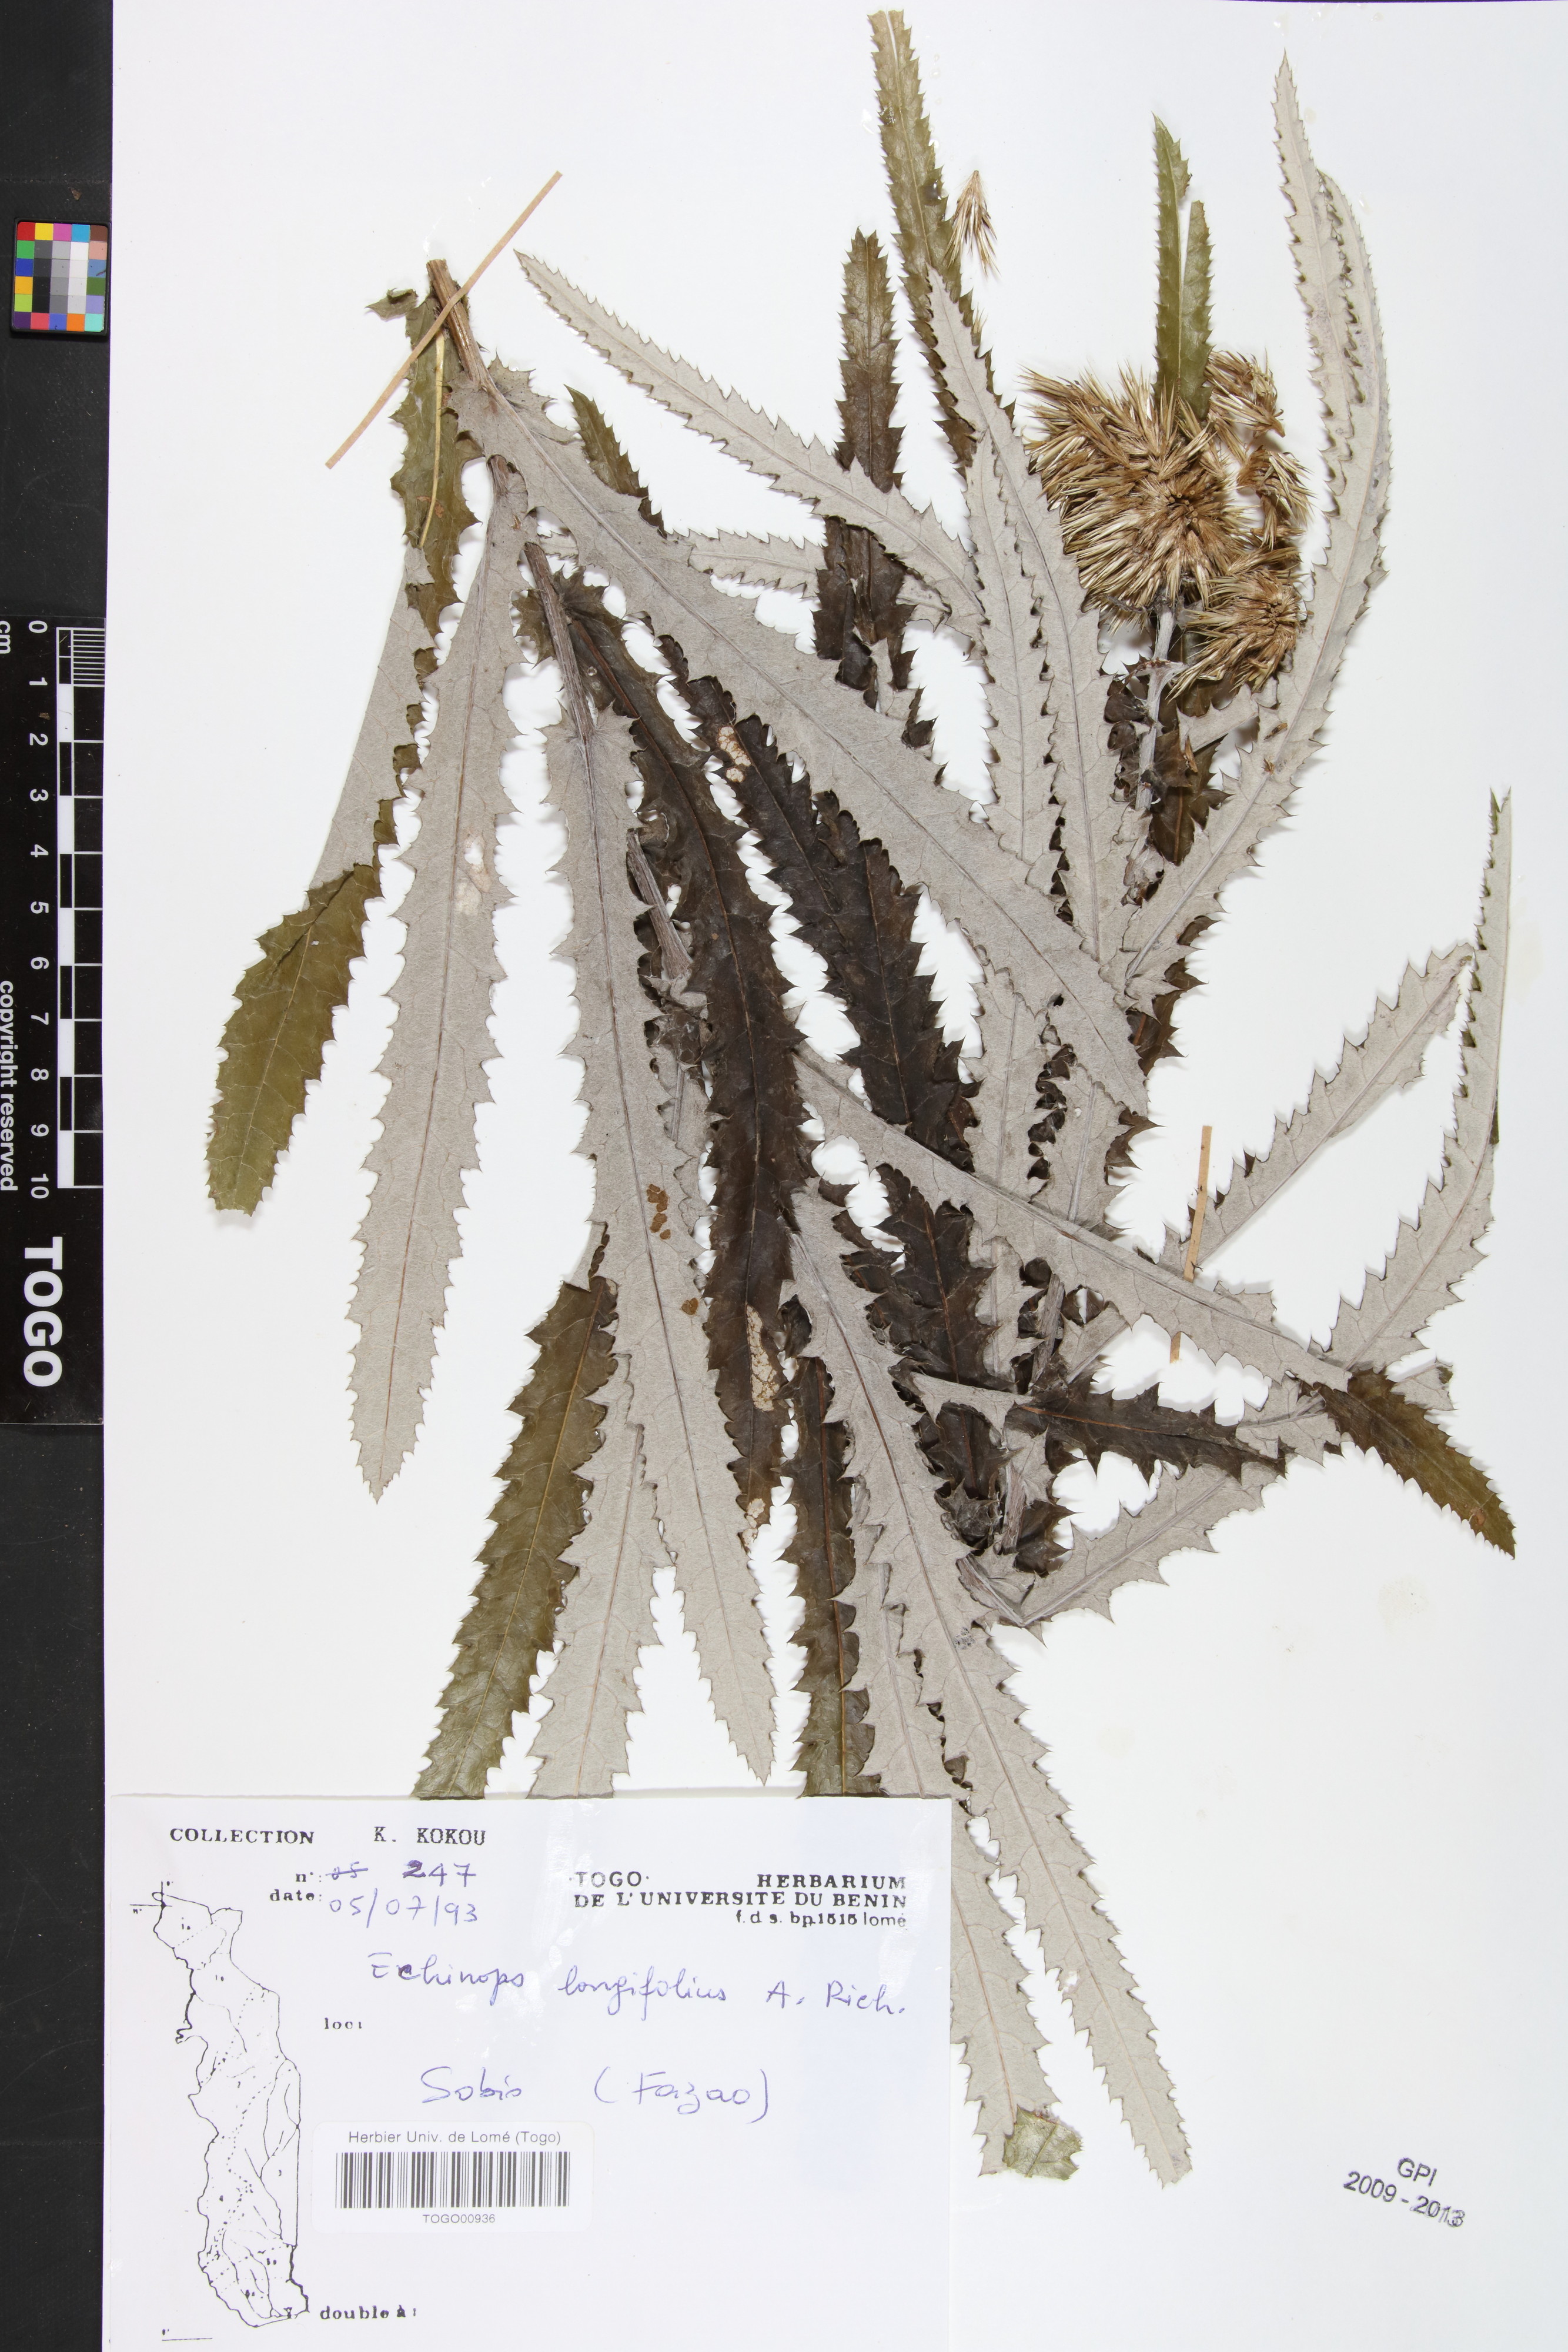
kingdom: Plantae
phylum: Tracheophyta
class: Magnoliopsida
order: Asterales
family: Asteraceae
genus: Echinops
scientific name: Echinops longifolius
